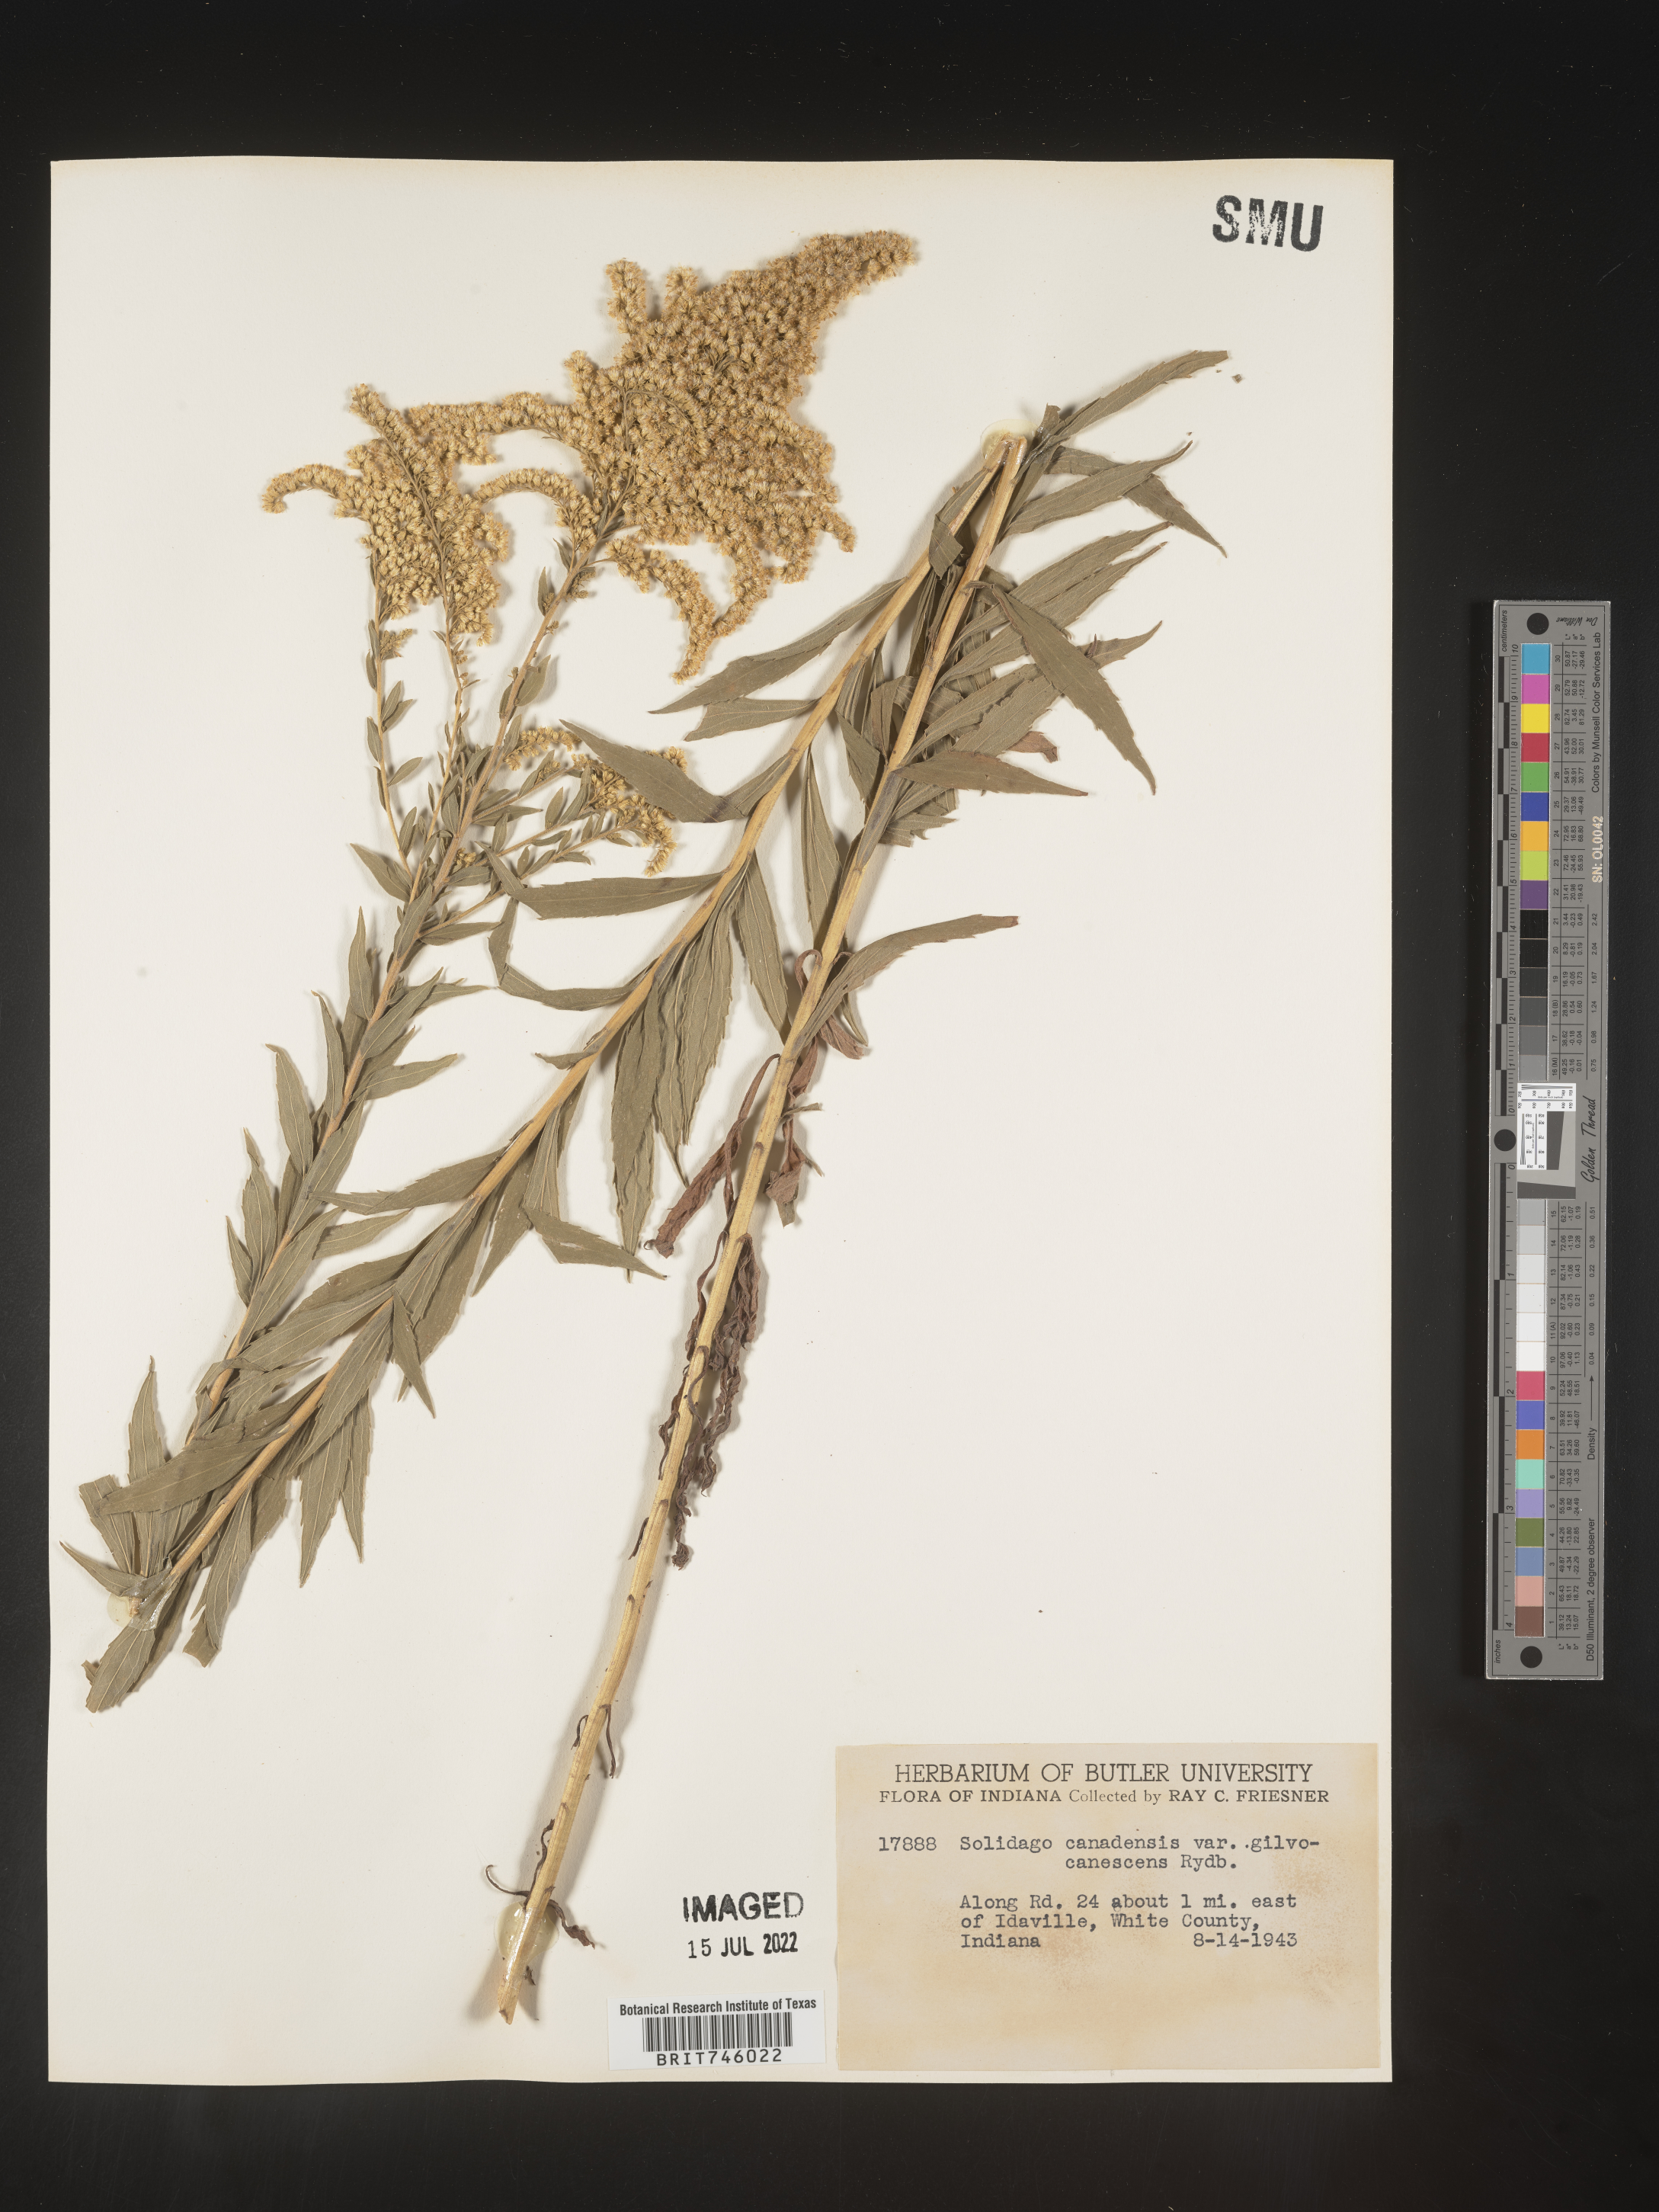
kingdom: Plantae
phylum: Tracheophyta
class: Magnoliopsida
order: Asterales
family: Asteraceae
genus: Solidago
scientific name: Solidago canadensis
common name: Canada goldenrod
